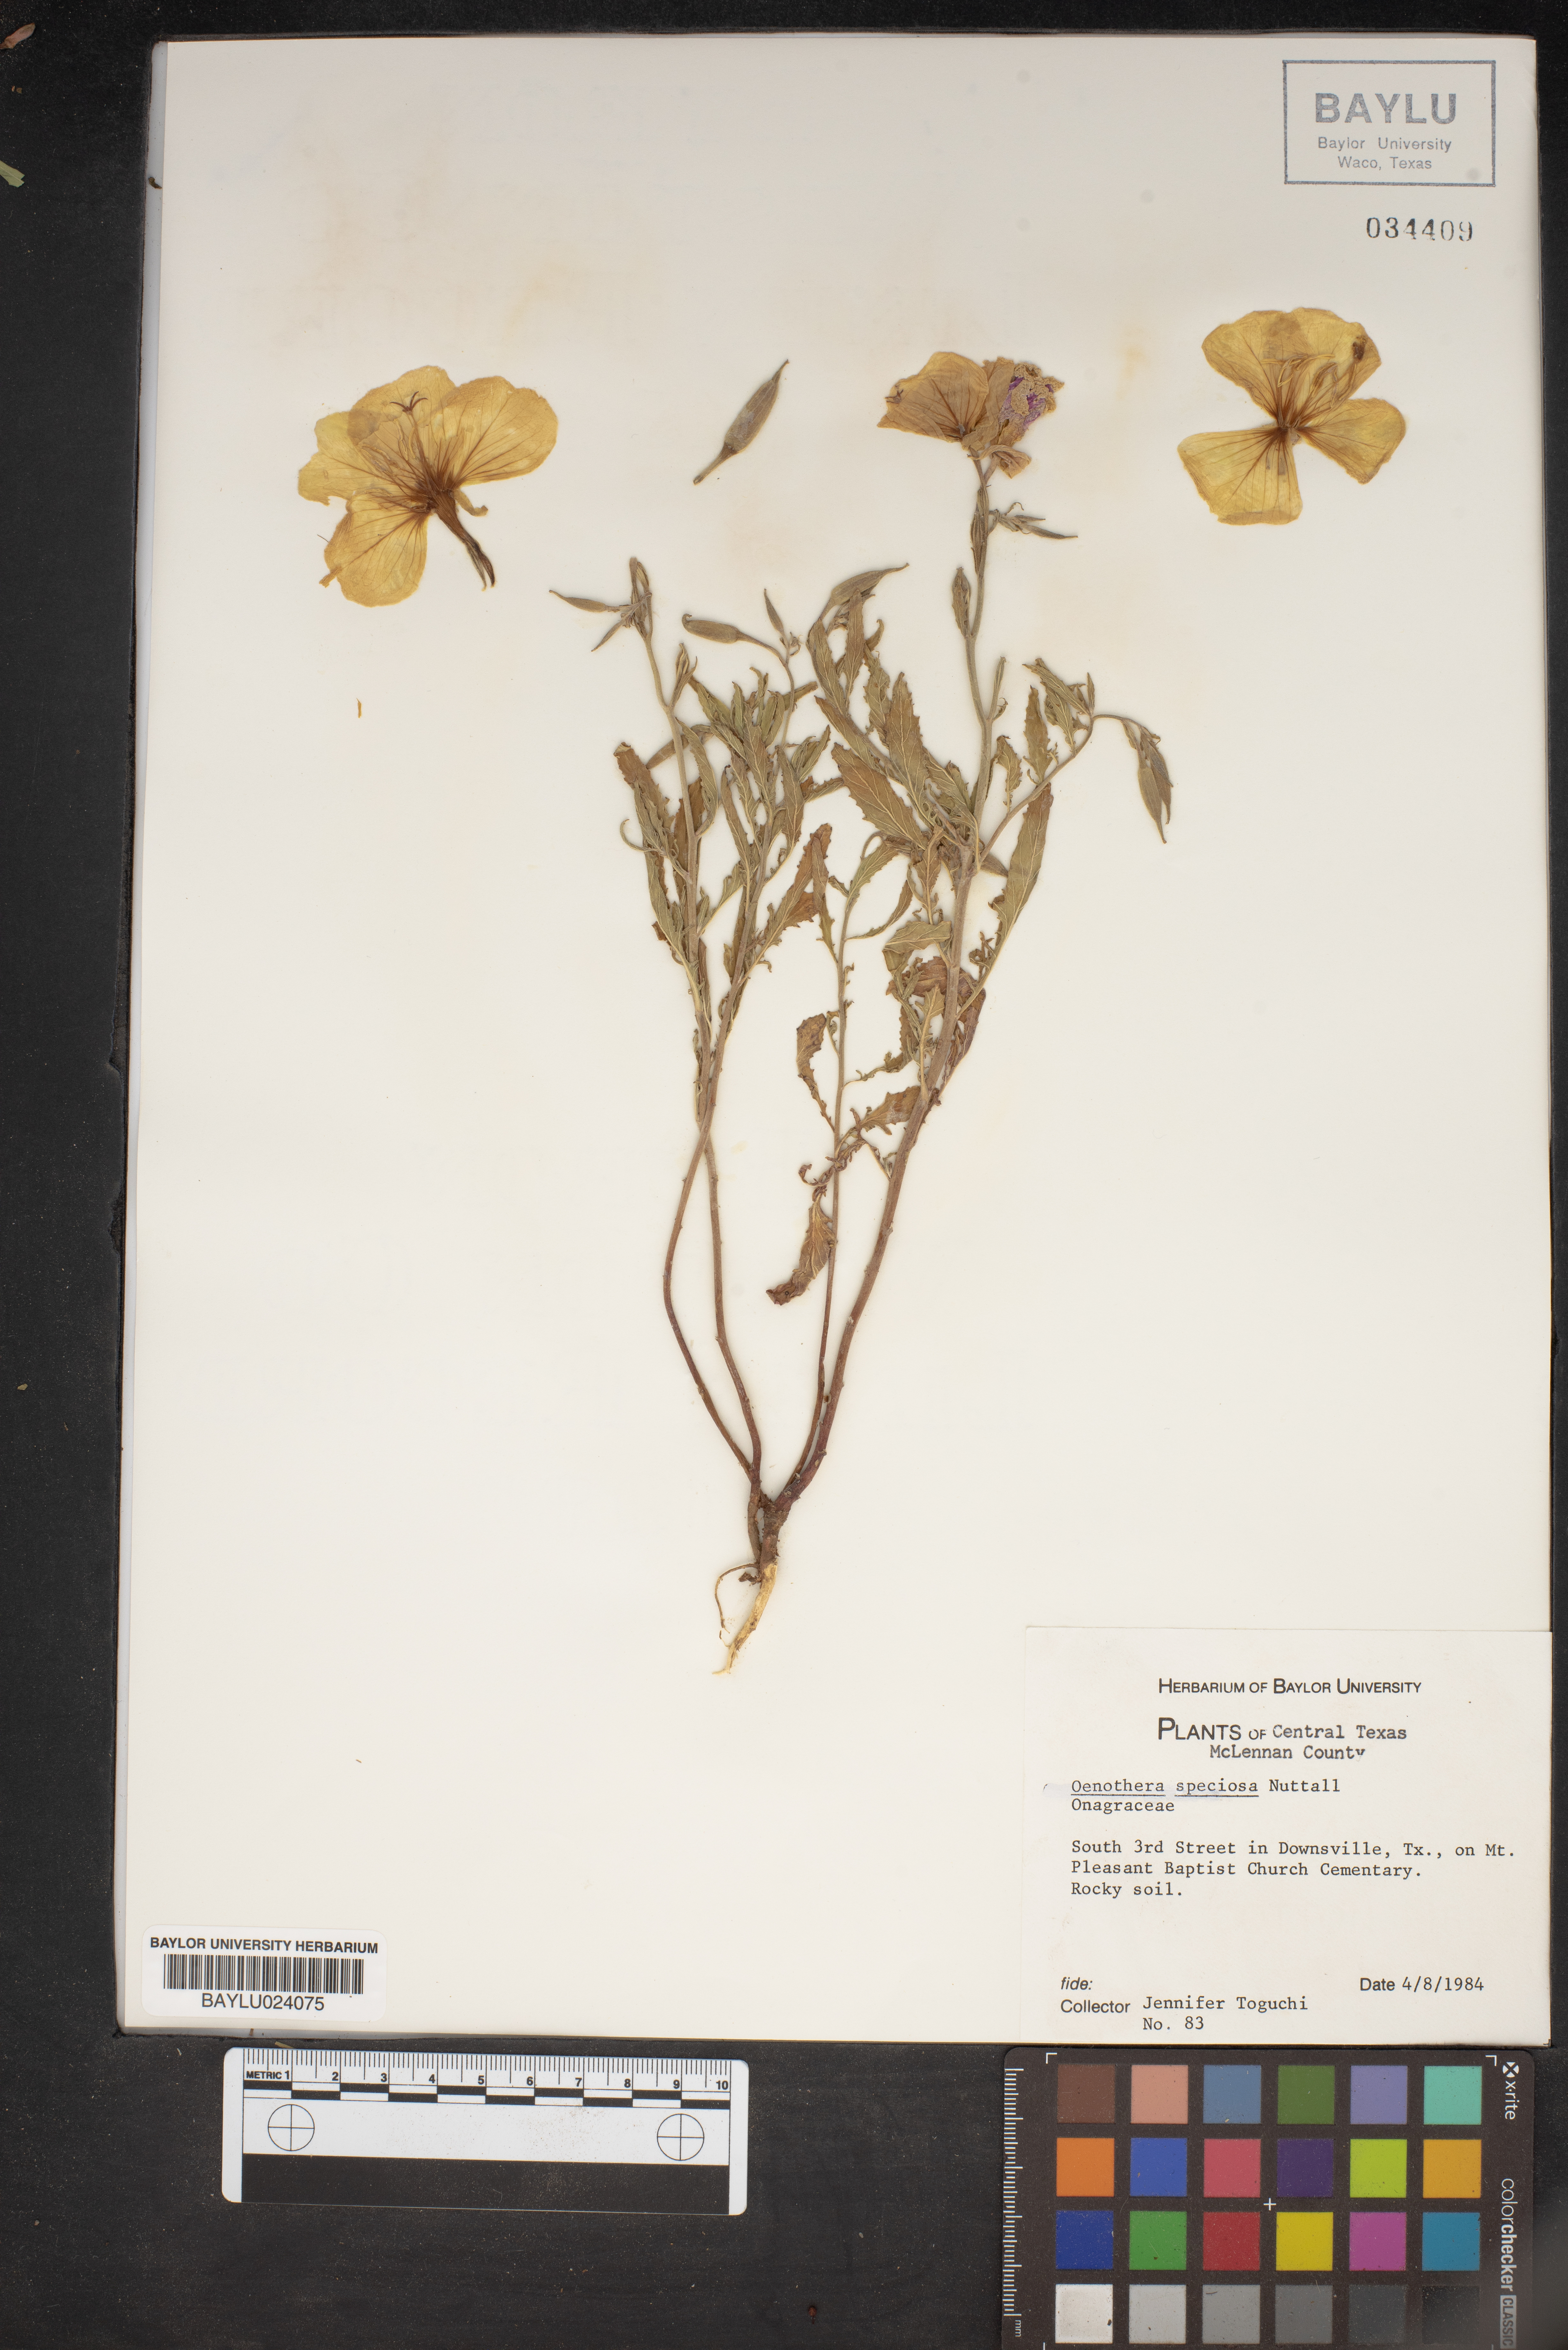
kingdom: Plantae
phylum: Tracheophyta
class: Magnoliopsida
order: Myrtales
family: Onagraceae
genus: Oenothera
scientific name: Oenothera speciosa
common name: White evening-primrose
